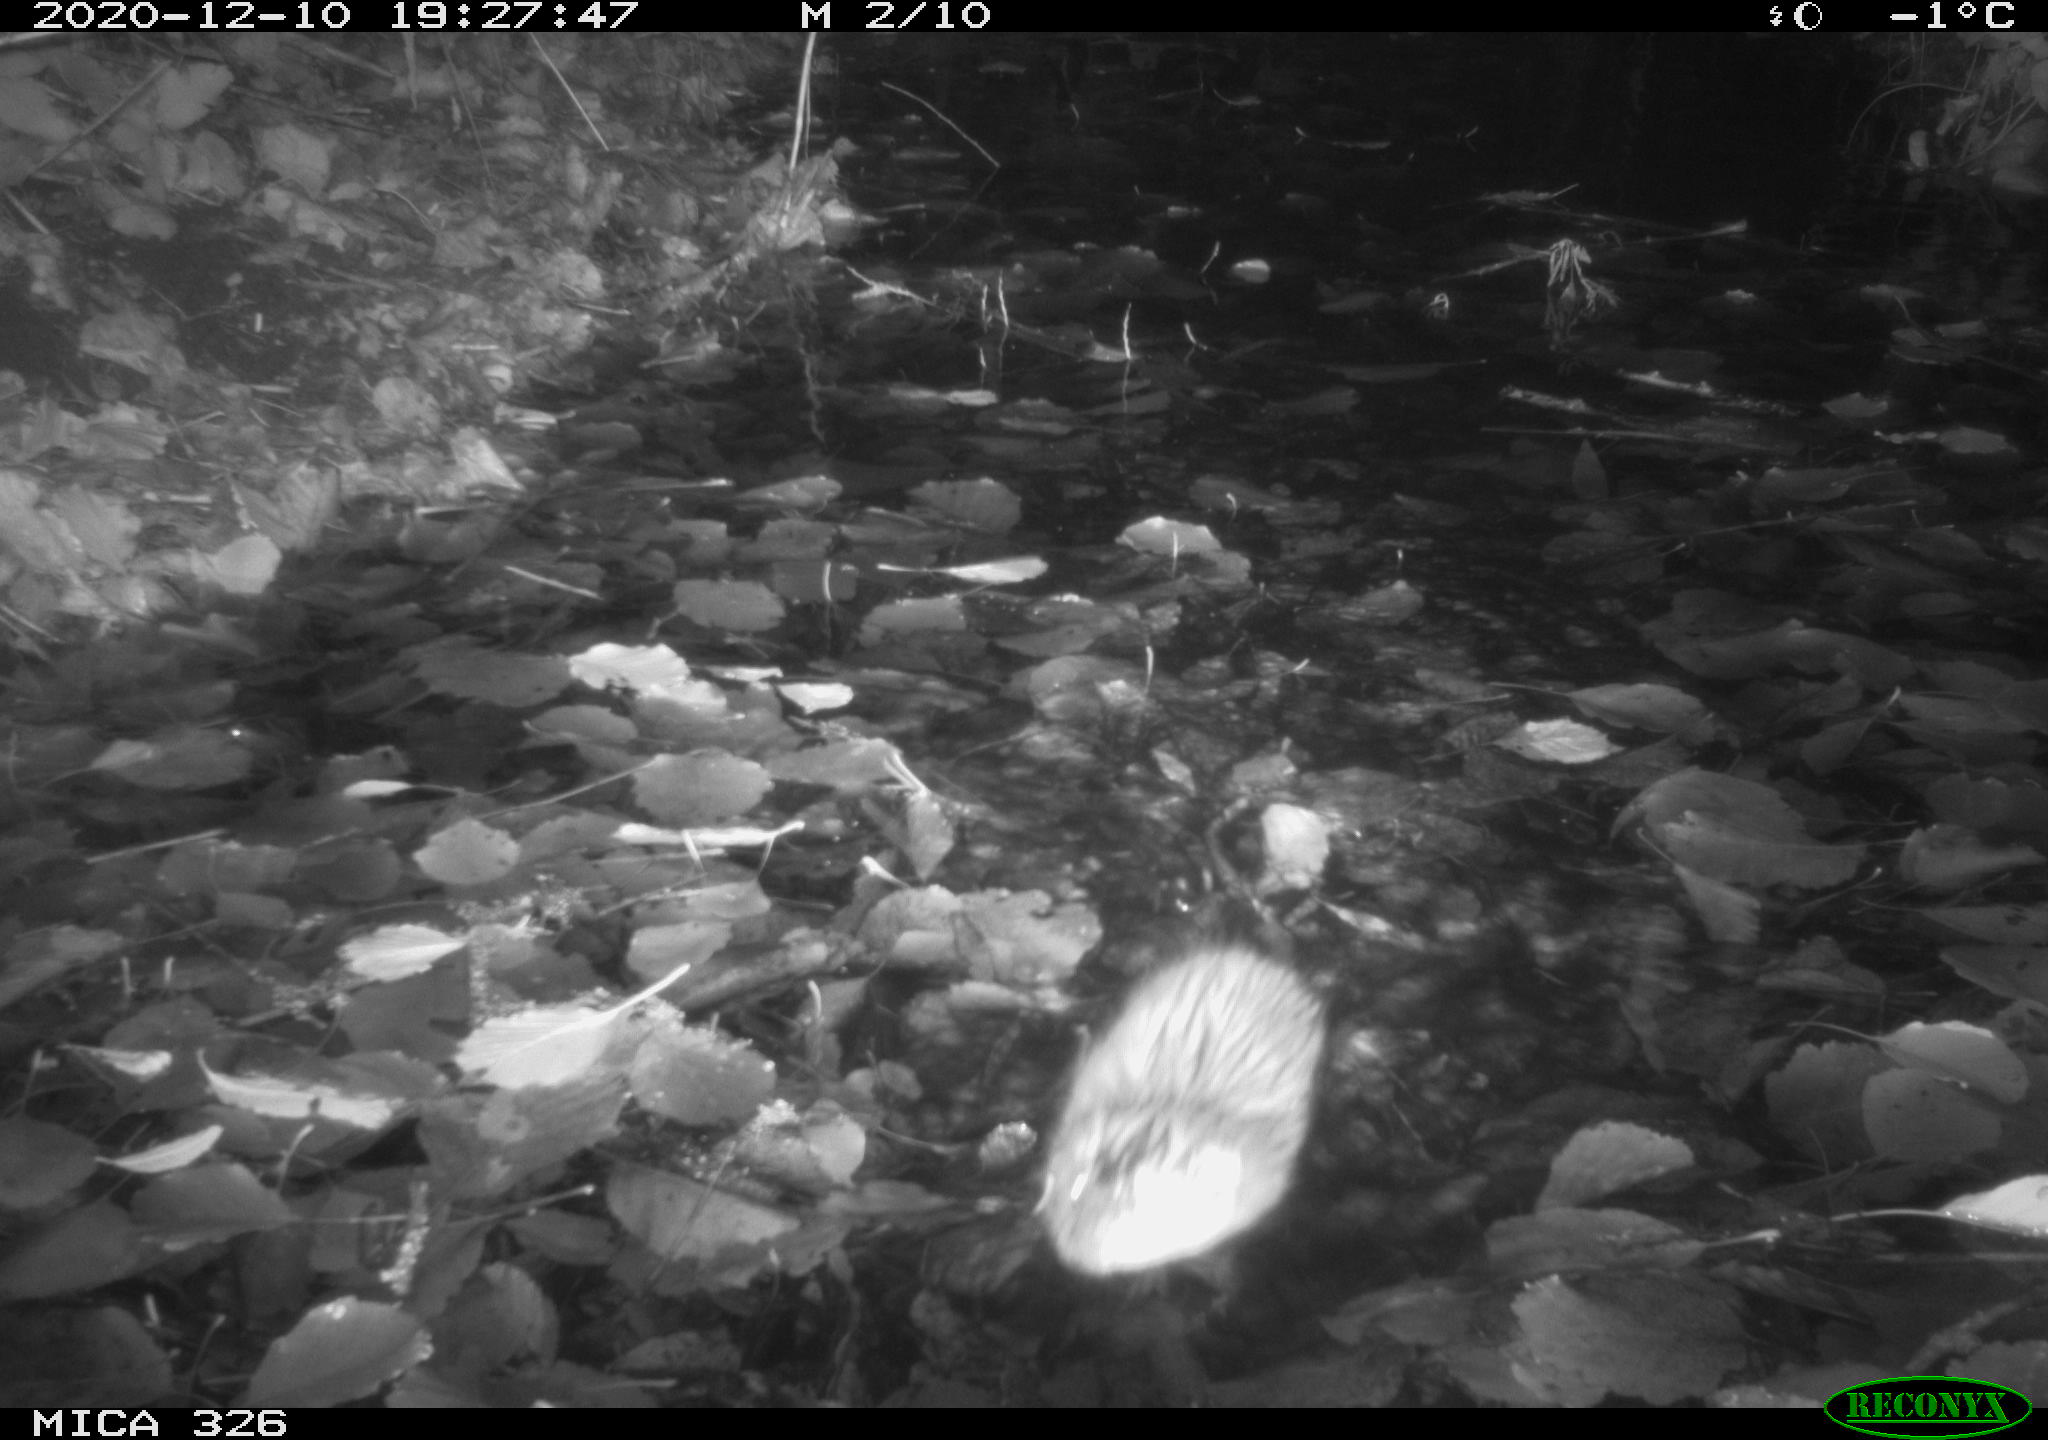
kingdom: Animalia
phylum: Chordata
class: Mammalia
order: Rodentia
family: Cricetidae
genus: Ondatra
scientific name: Ondatra zibethicus
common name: Muskrat
